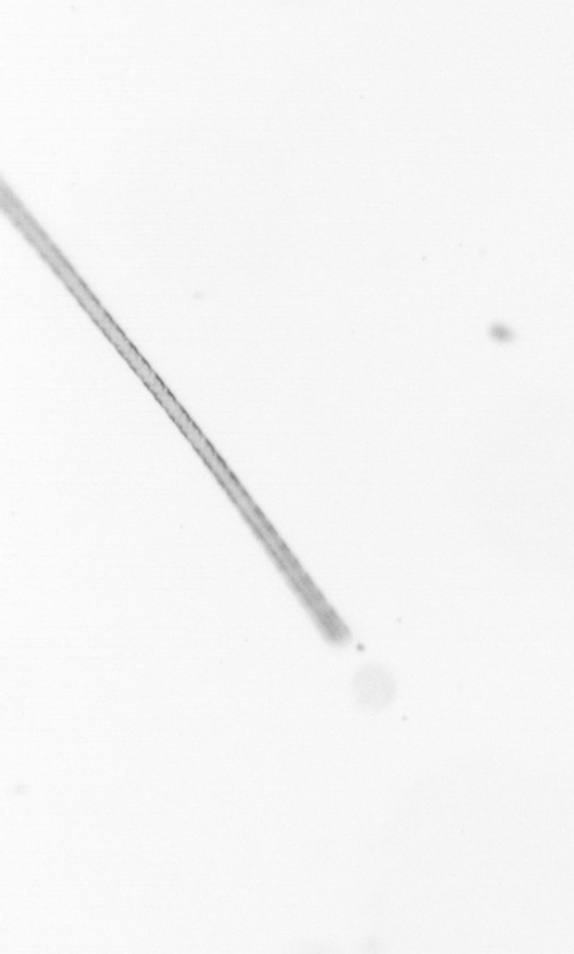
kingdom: Chromista
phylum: Ochrophyta
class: Bacillariophyceae
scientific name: Bacillariophyceae
